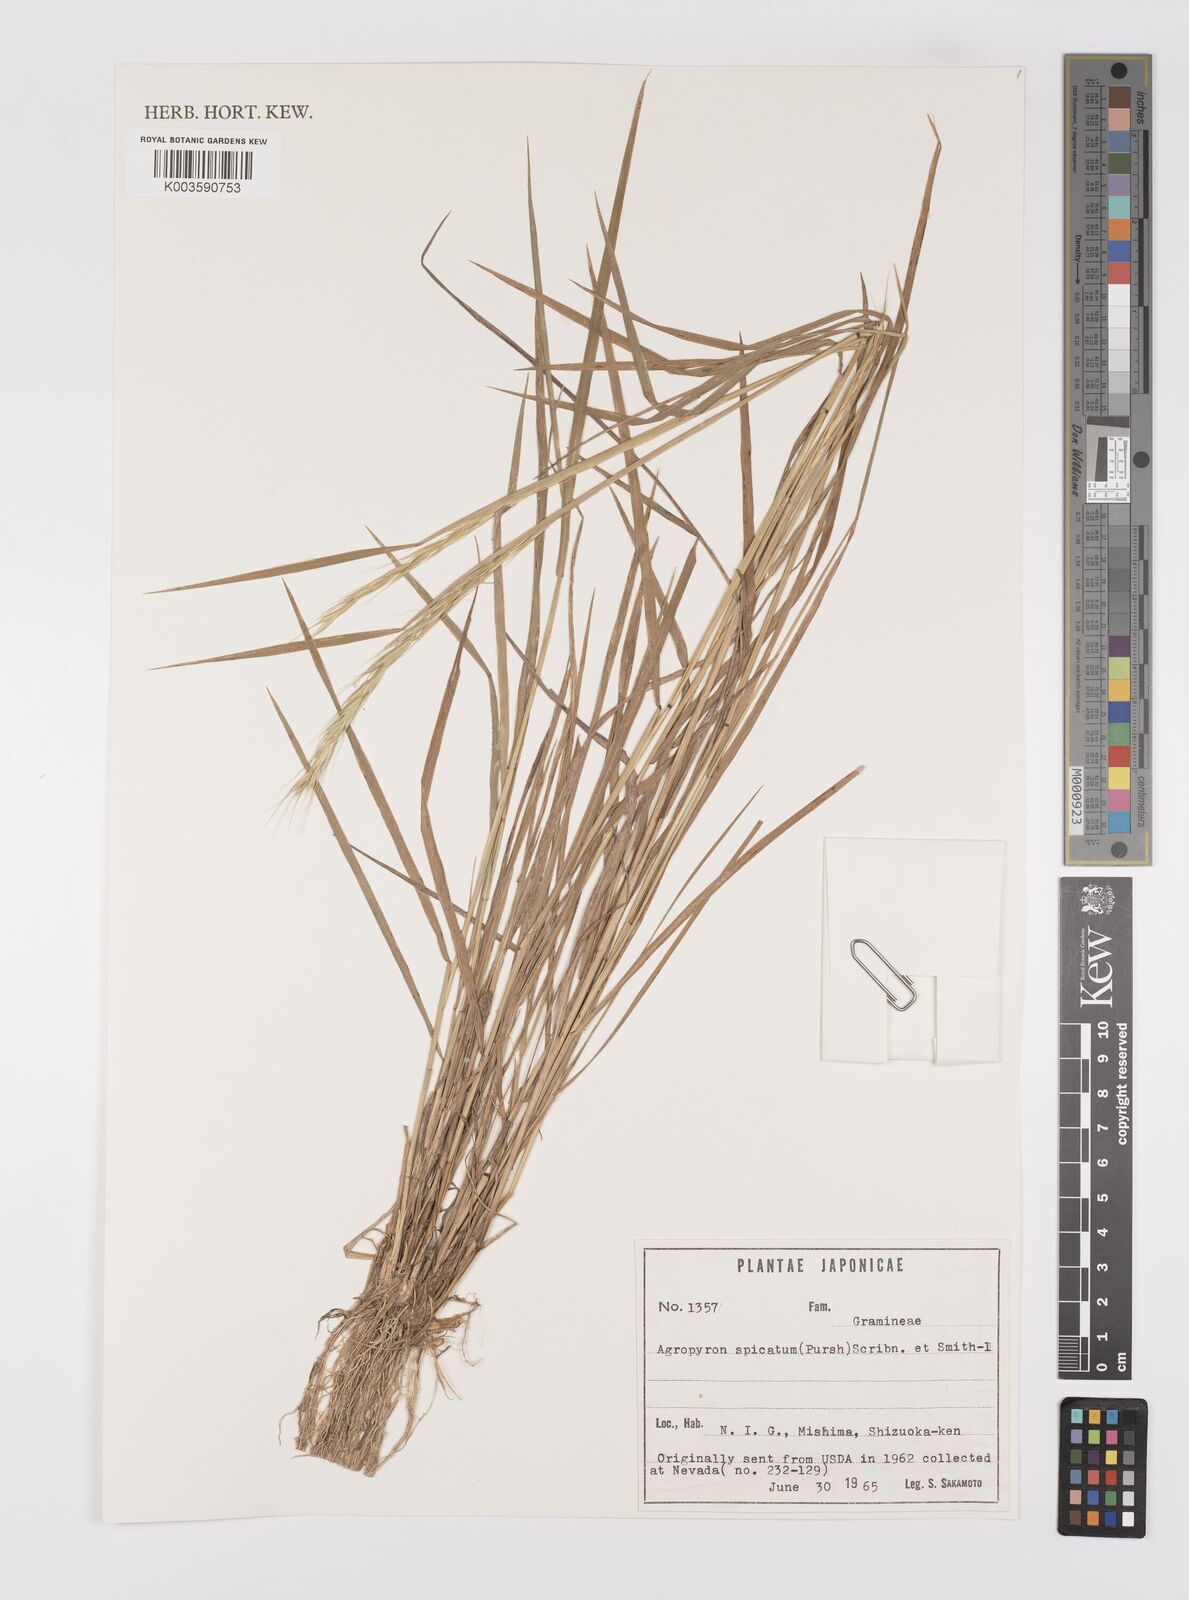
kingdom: Plantae
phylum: Tracheophyta
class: Liliopsida
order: Poales
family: Poaceae
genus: Pseudoroegneria
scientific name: Pseudoroegneria spicata
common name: Bluebunch wheatgrass
